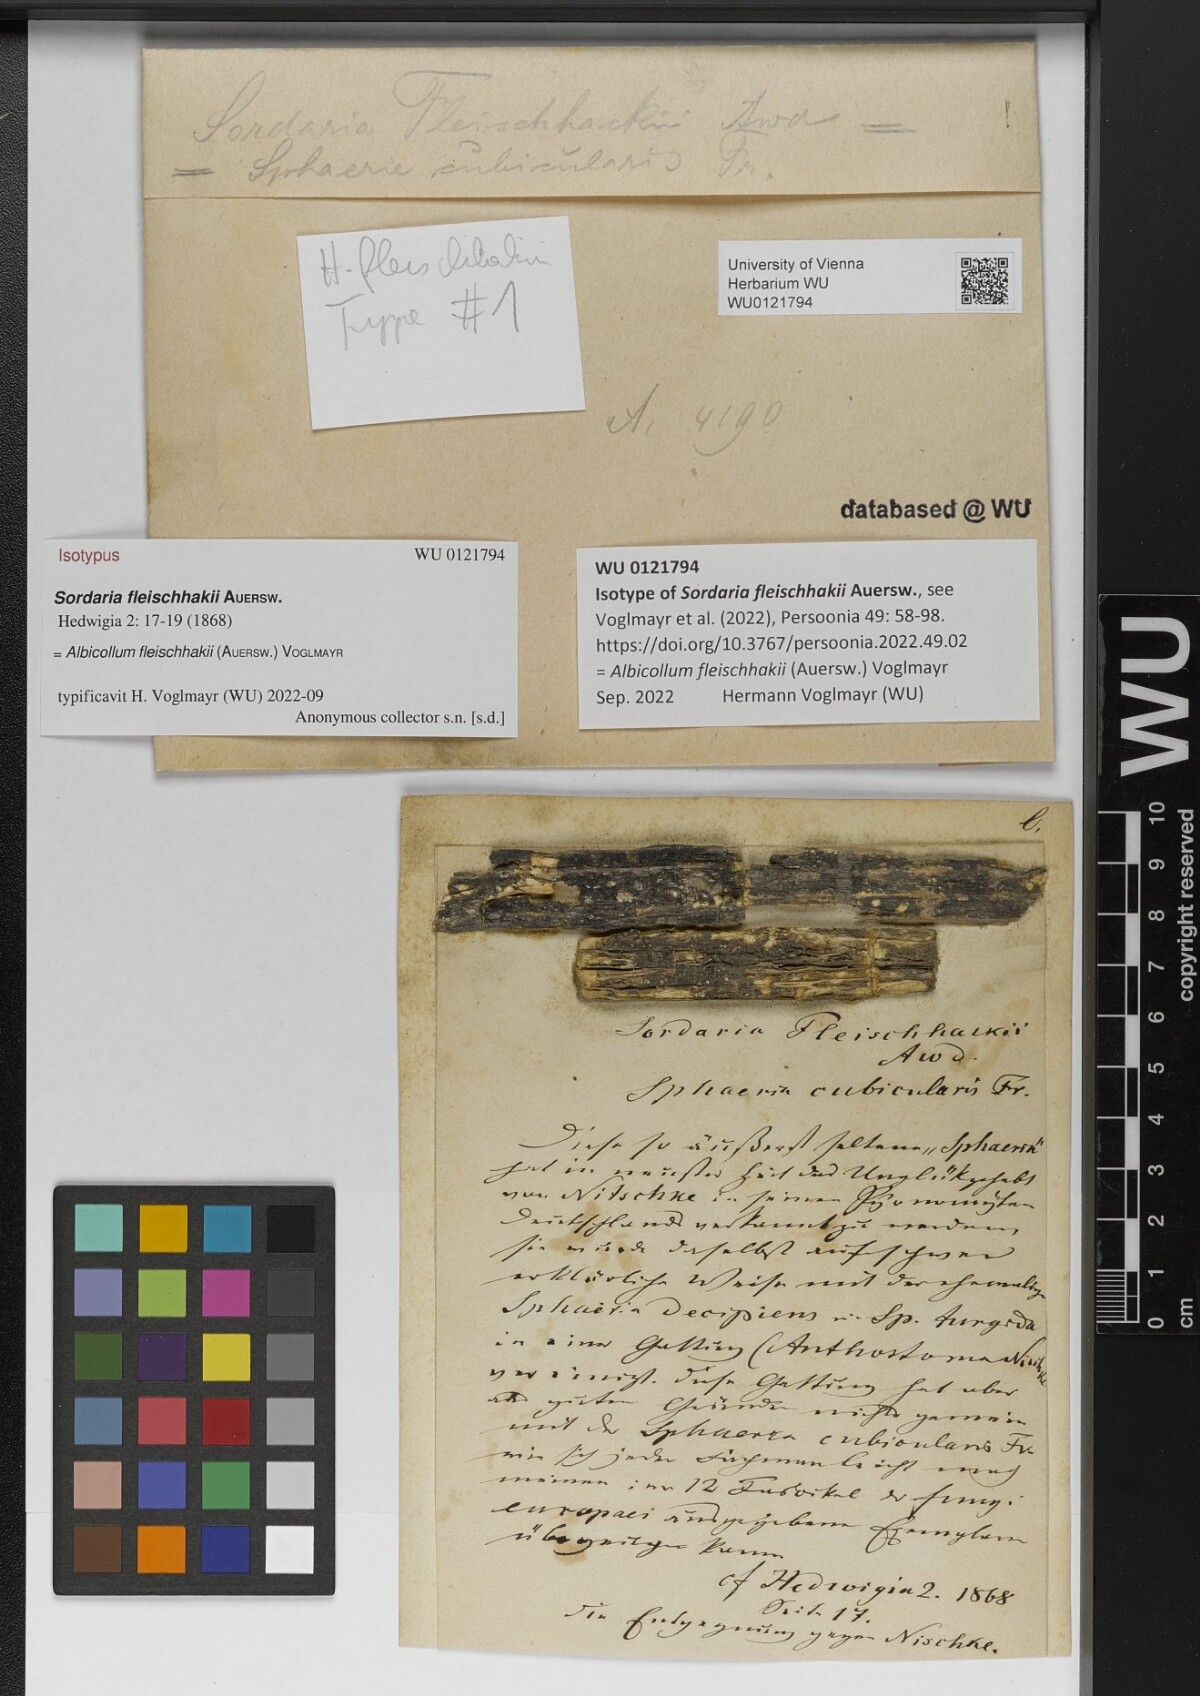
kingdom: Fungi
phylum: Ascomycota
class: Sordariomycetes
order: Xylariales
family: Xylariaceae
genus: Albicollum
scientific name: Albicollum fleischhakii
